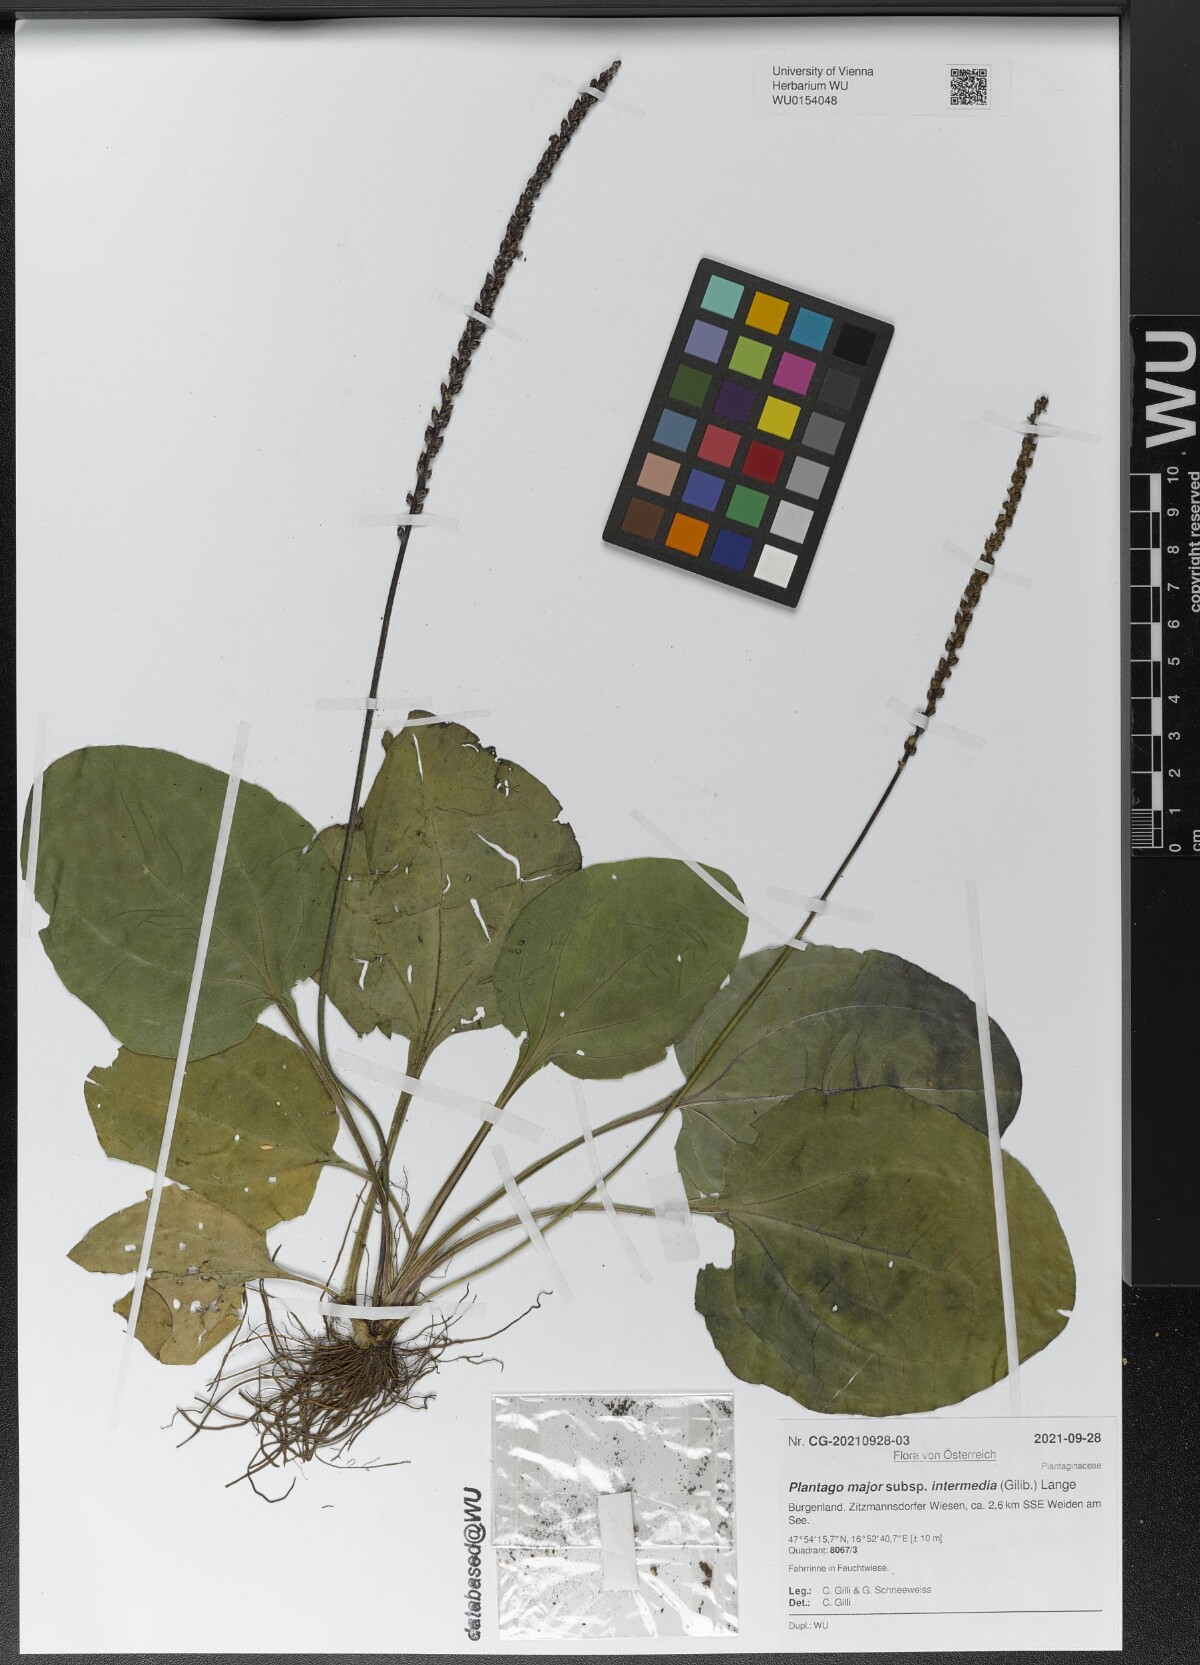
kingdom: Plantae
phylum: Tracheophyta
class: Magnoliopsida
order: Lamiales
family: Plantaginaceae
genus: Plantago
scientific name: Plantago uliginosa
